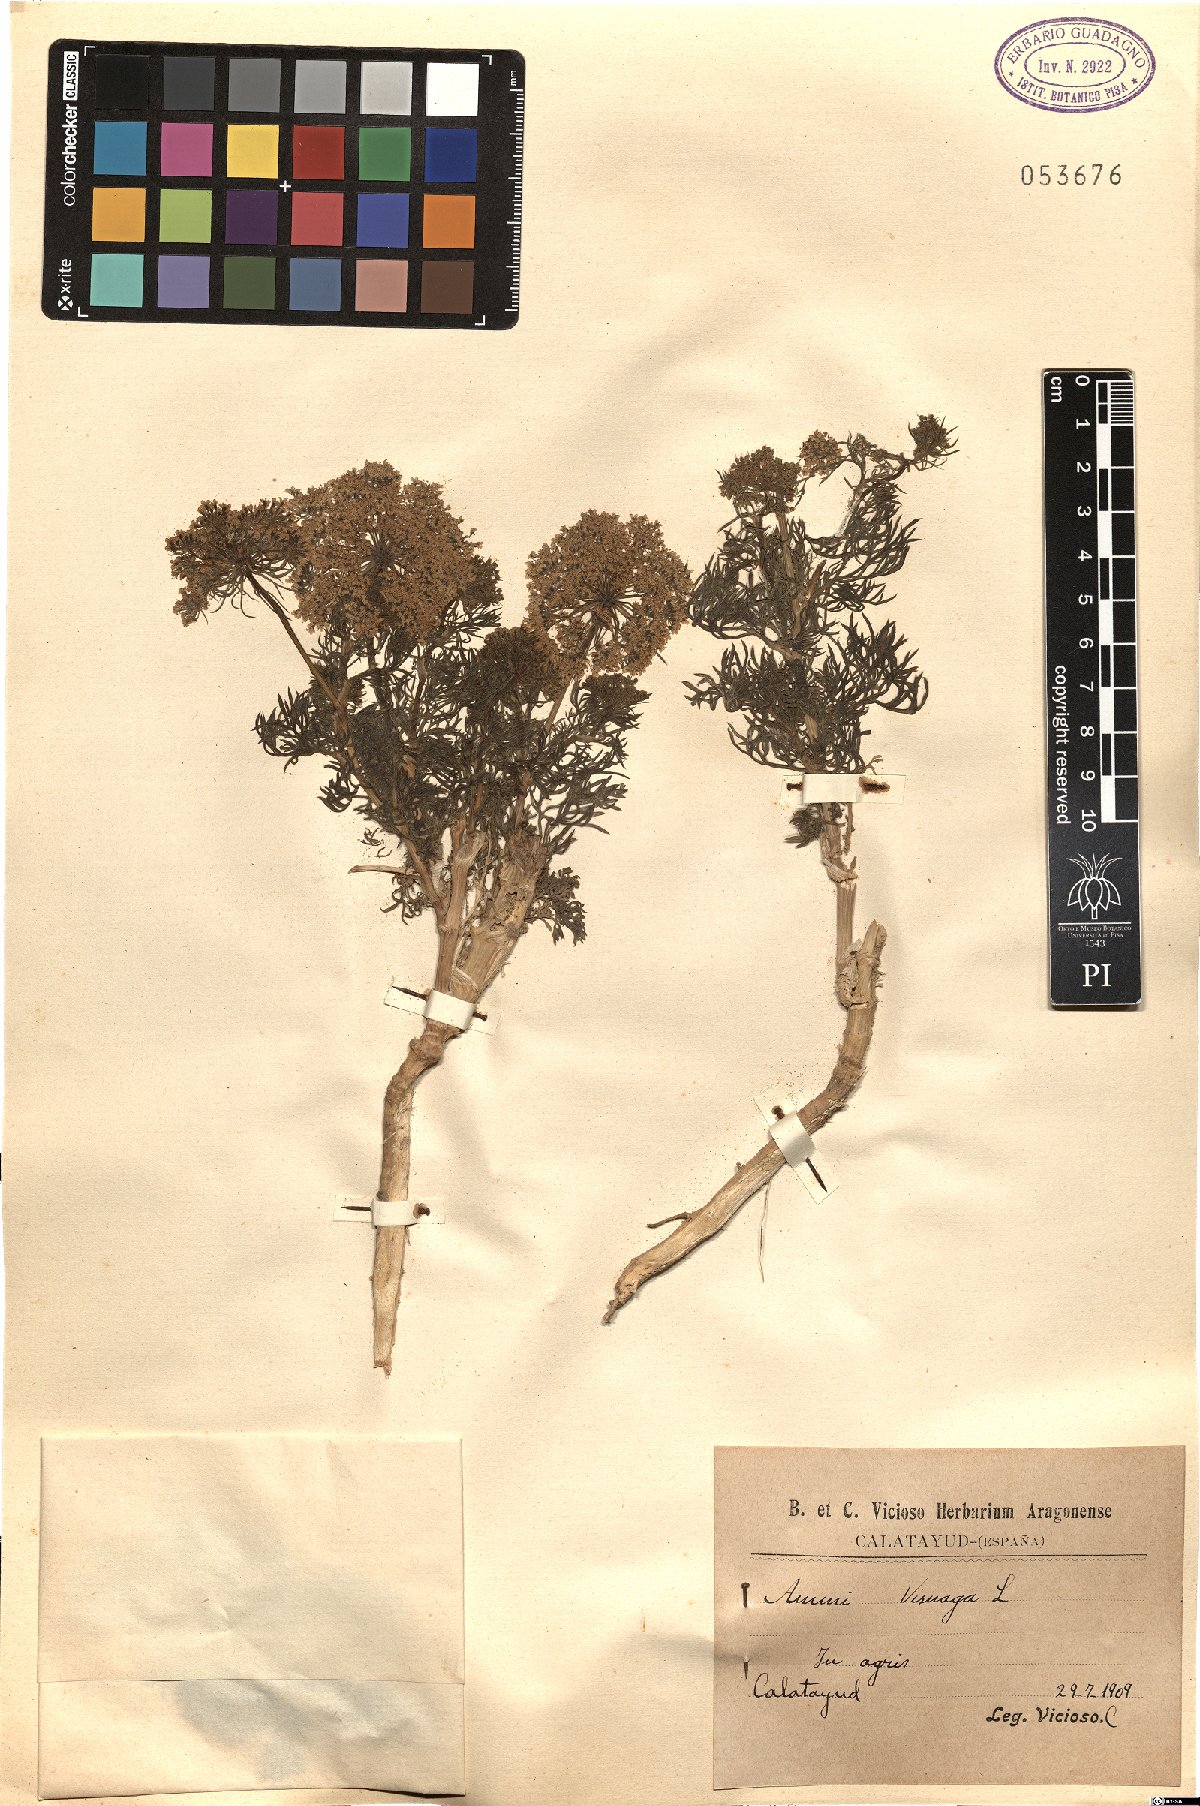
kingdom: Plantae
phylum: Tracheophyta
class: Magnoliopsida
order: Apiales
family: Apiaceae
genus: Visnaga
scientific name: Visnaga daucoides
